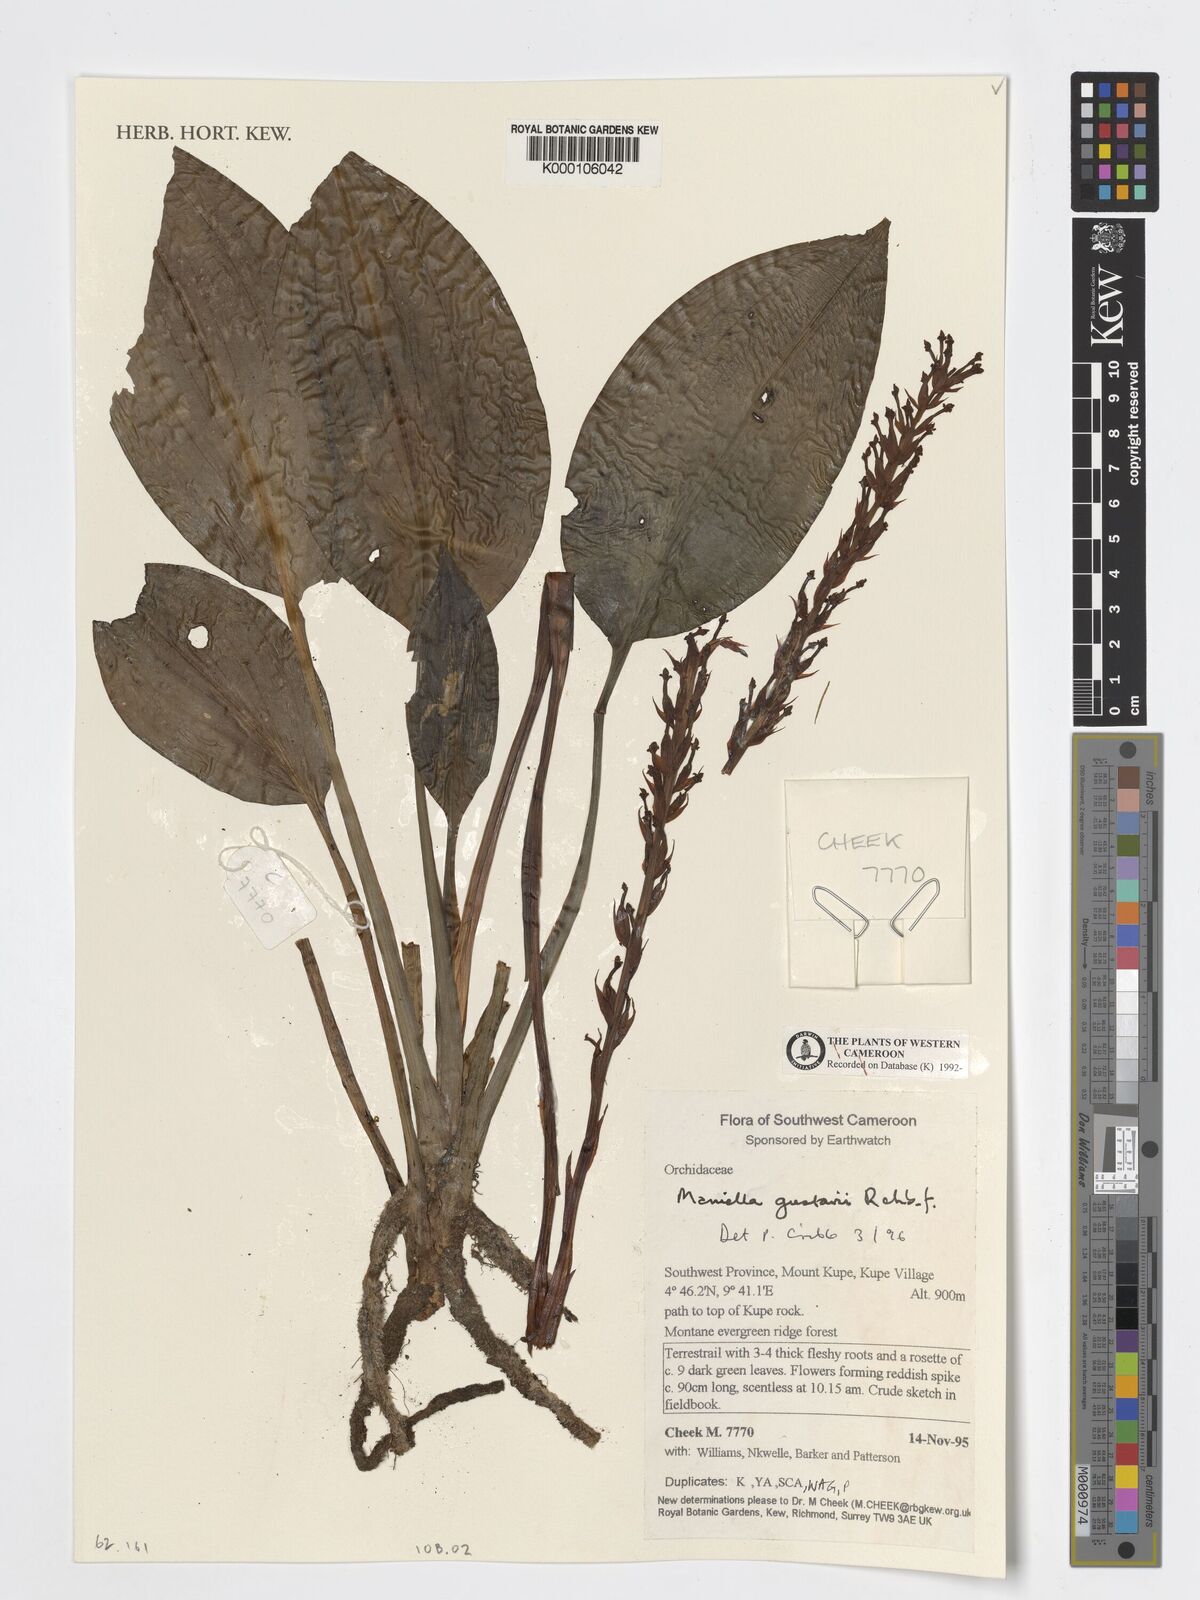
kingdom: Plantae
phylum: Tracheophyta
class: Liliopsida
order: Asparagales
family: Orchidaceae
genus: Manniella
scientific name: Manniella gustavi
